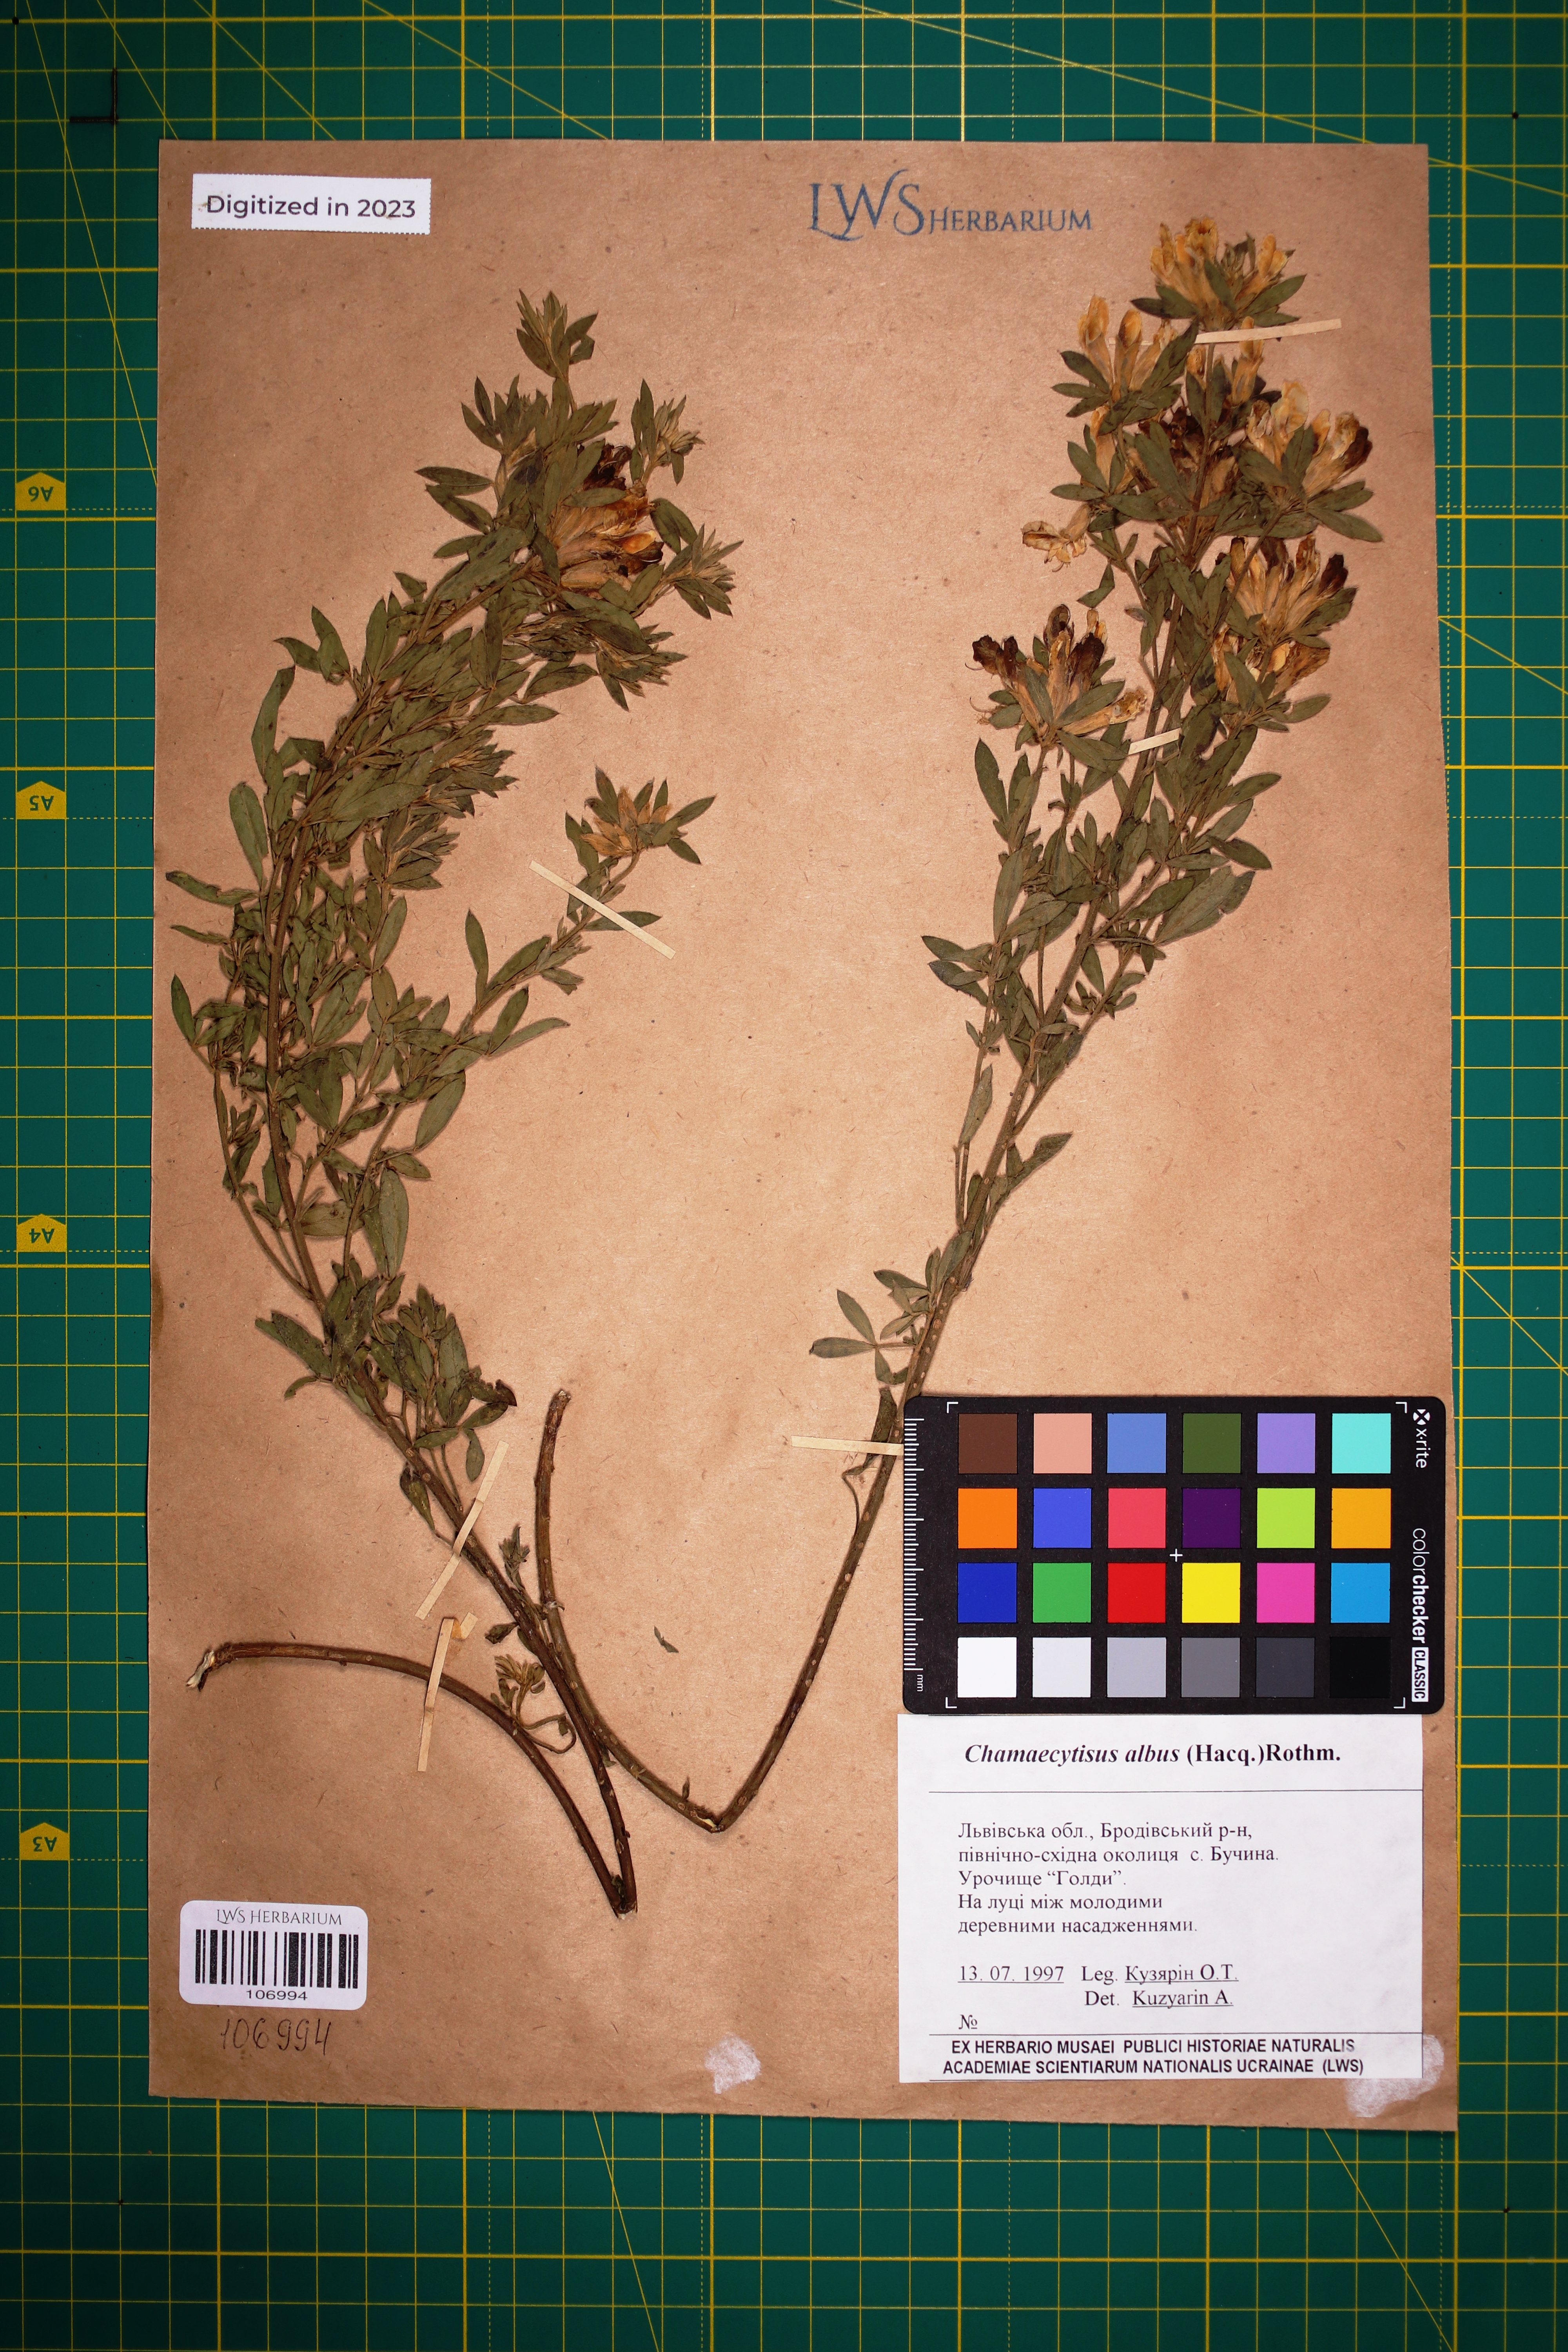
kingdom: Plantae
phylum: Tracheophyta
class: Magnoliopsida
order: Fabales
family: Fabaceae
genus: Chamaecytisus
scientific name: Chamaecytisus albus
